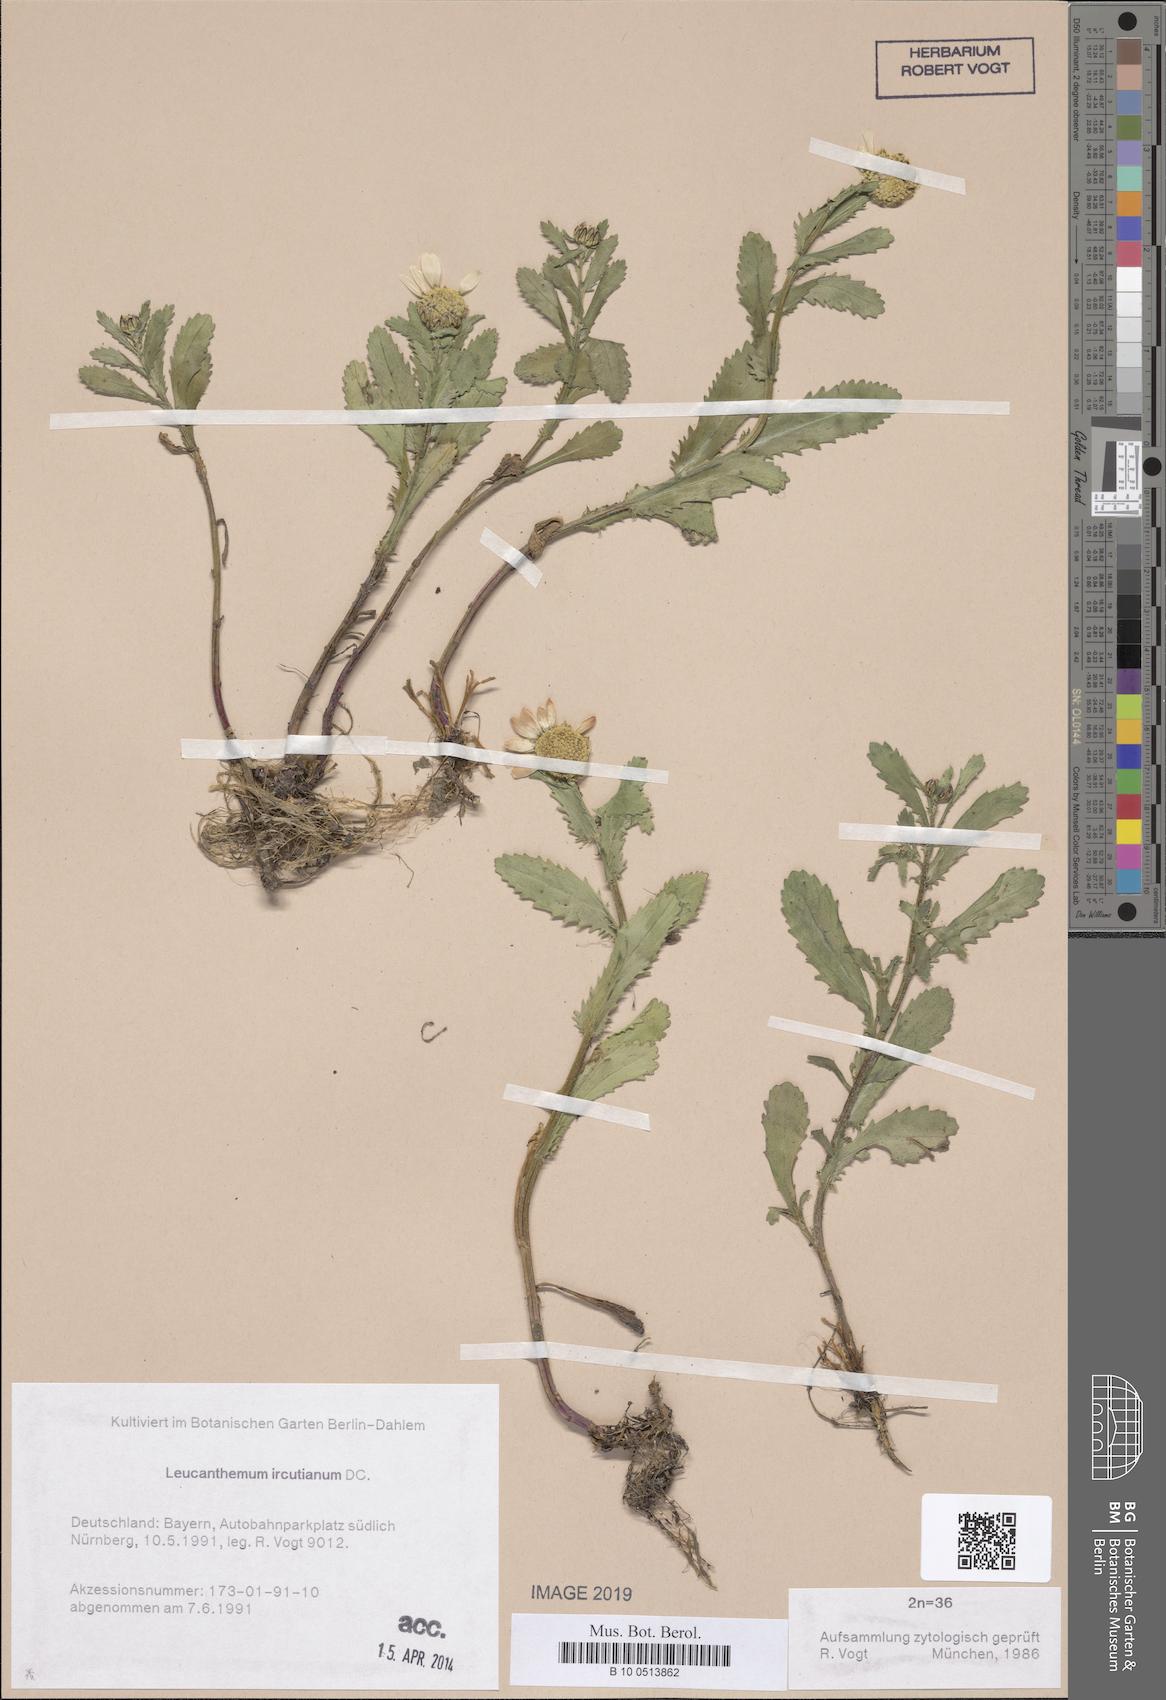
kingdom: Plantae
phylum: Tracheophyta
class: Magnoliopsida
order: Asterales
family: Asteraceae
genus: Leucanthemum
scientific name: Leucanthemum ircutianum
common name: Daisy
